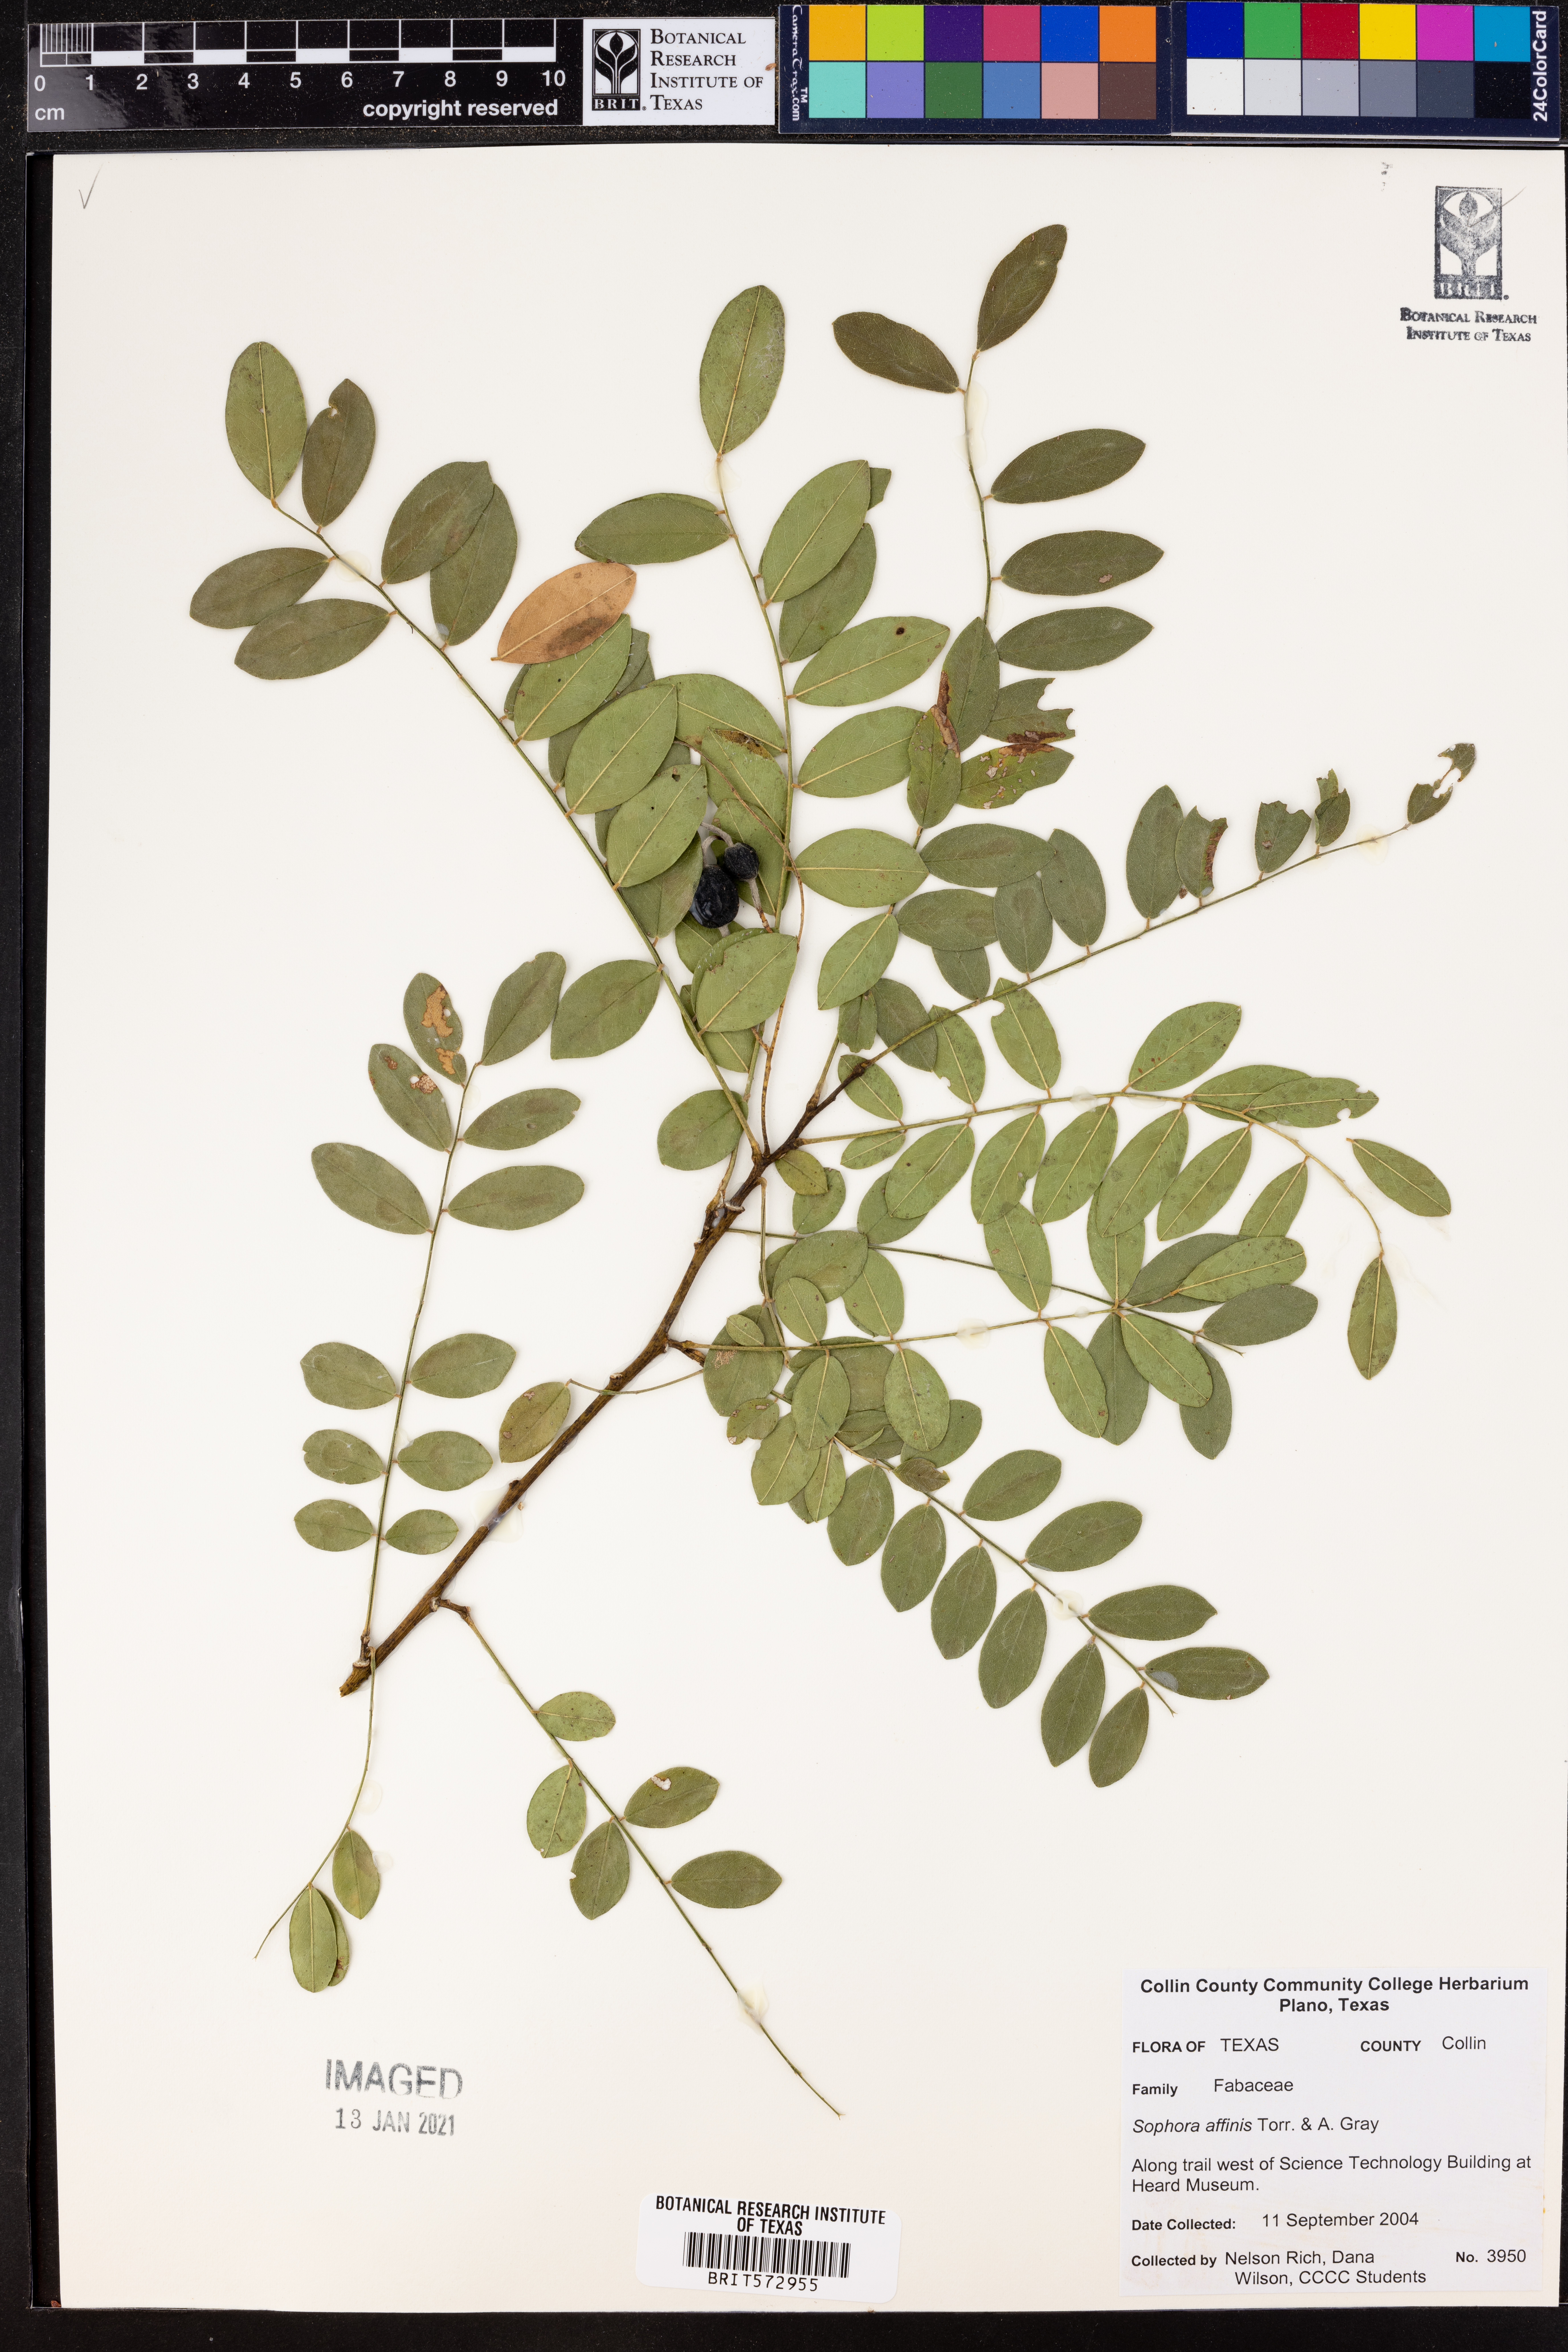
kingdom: Plantae
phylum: Tracheophyta
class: Magnoliopsida
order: Fabales
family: Fabaceae
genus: Styphnolobium
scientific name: Styphnolobium affine
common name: Texas sophora
